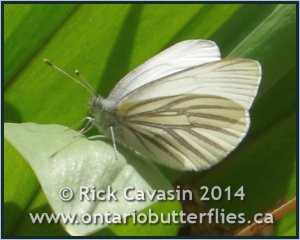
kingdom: Animalia
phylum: Arthropoda
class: Insecta
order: Lepidoptera
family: Pieridae
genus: Pieris
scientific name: Pieris oleracea
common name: Mustard White
